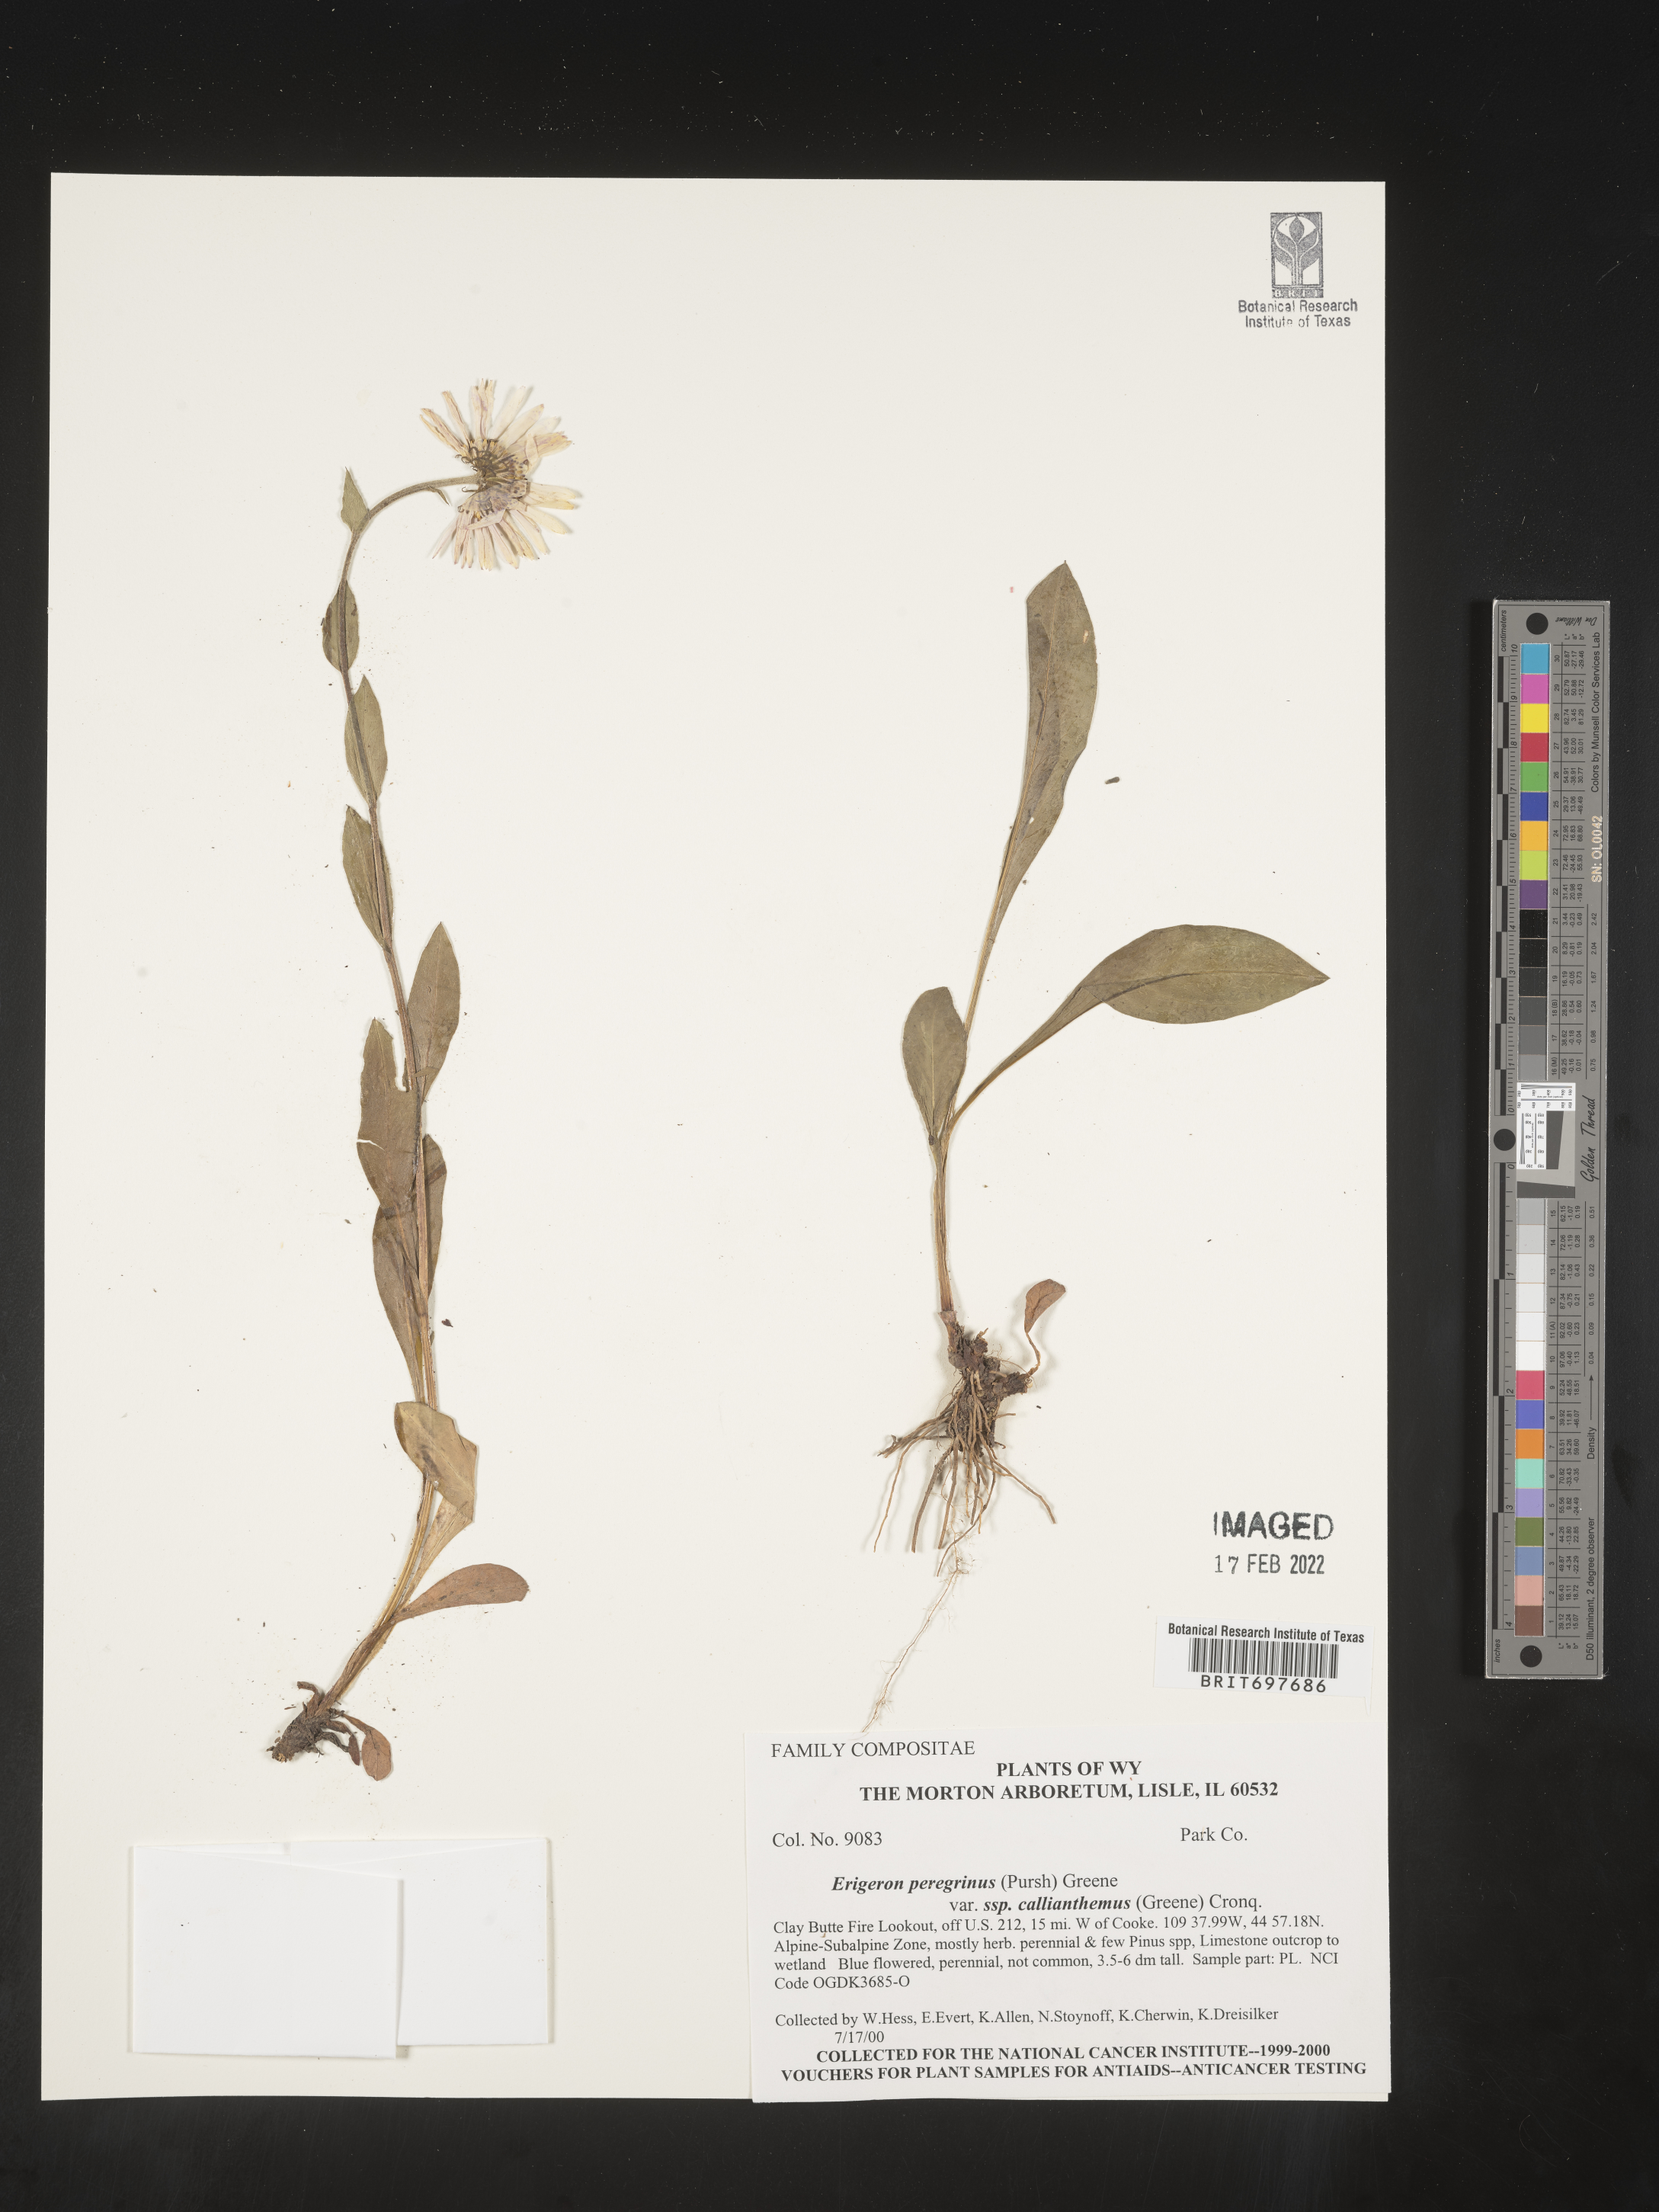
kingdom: Plantae
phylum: Tracheophyta
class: Magnoliopsida
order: Asterales
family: Asteraceae
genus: Erigeron
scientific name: Erigeron glacialis
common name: Subalpine fleabane
